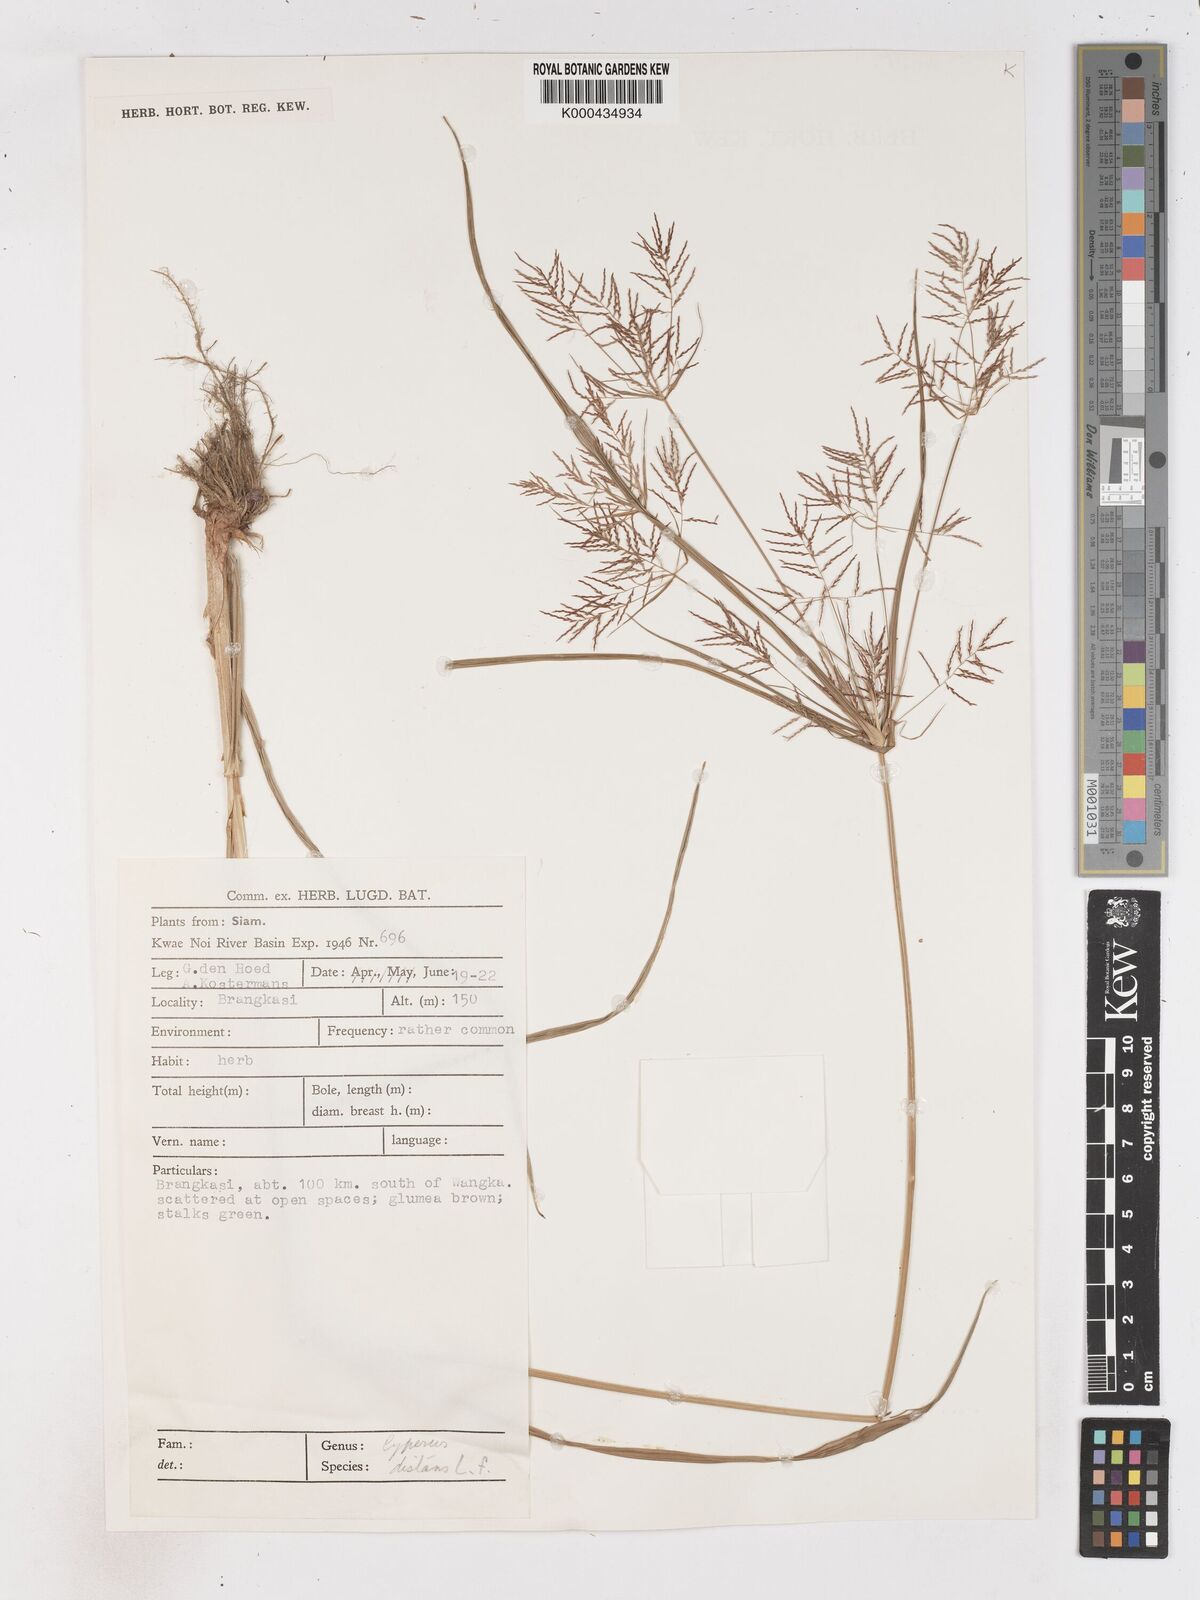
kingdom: Plantae
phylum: Tracheophyta
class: Liliopsida
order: Poales
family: Cyperaceae
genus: Cyperus
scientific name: Cyperus distans
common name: Slender cyperus
